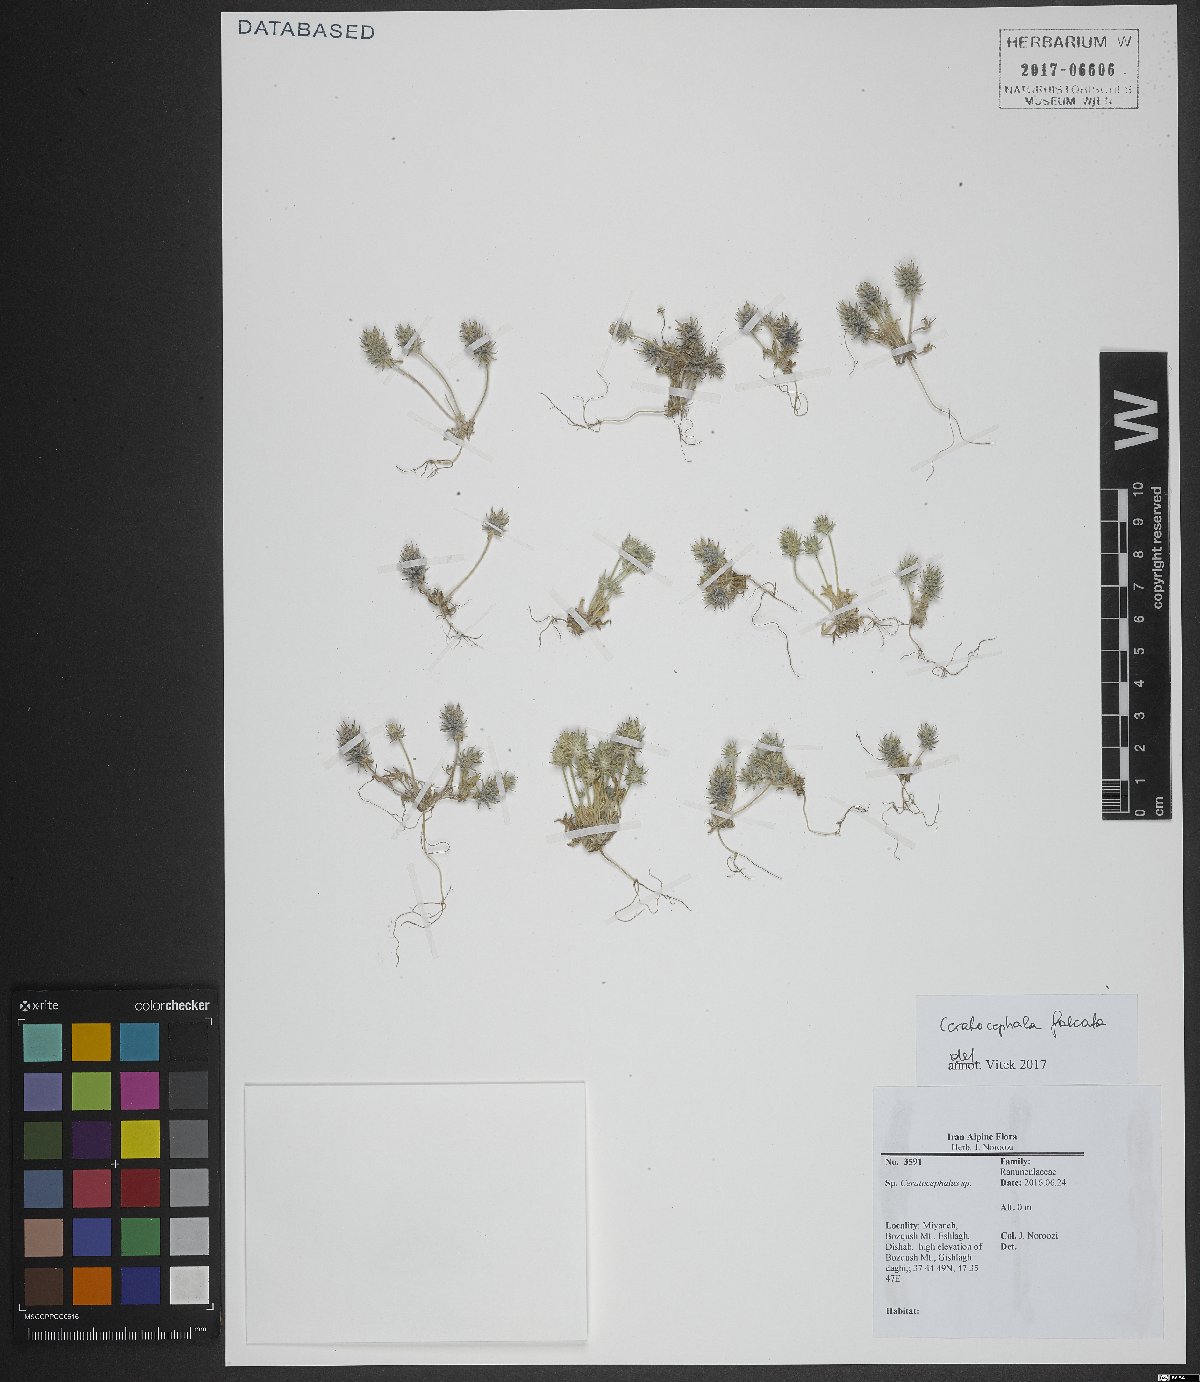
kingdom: Plantae
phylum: Tracheophyta
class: Magnoliopsida
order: Ranunculales
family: Ranunculaceae
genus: Ceratocephala
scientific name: Ceratocephala falcata
